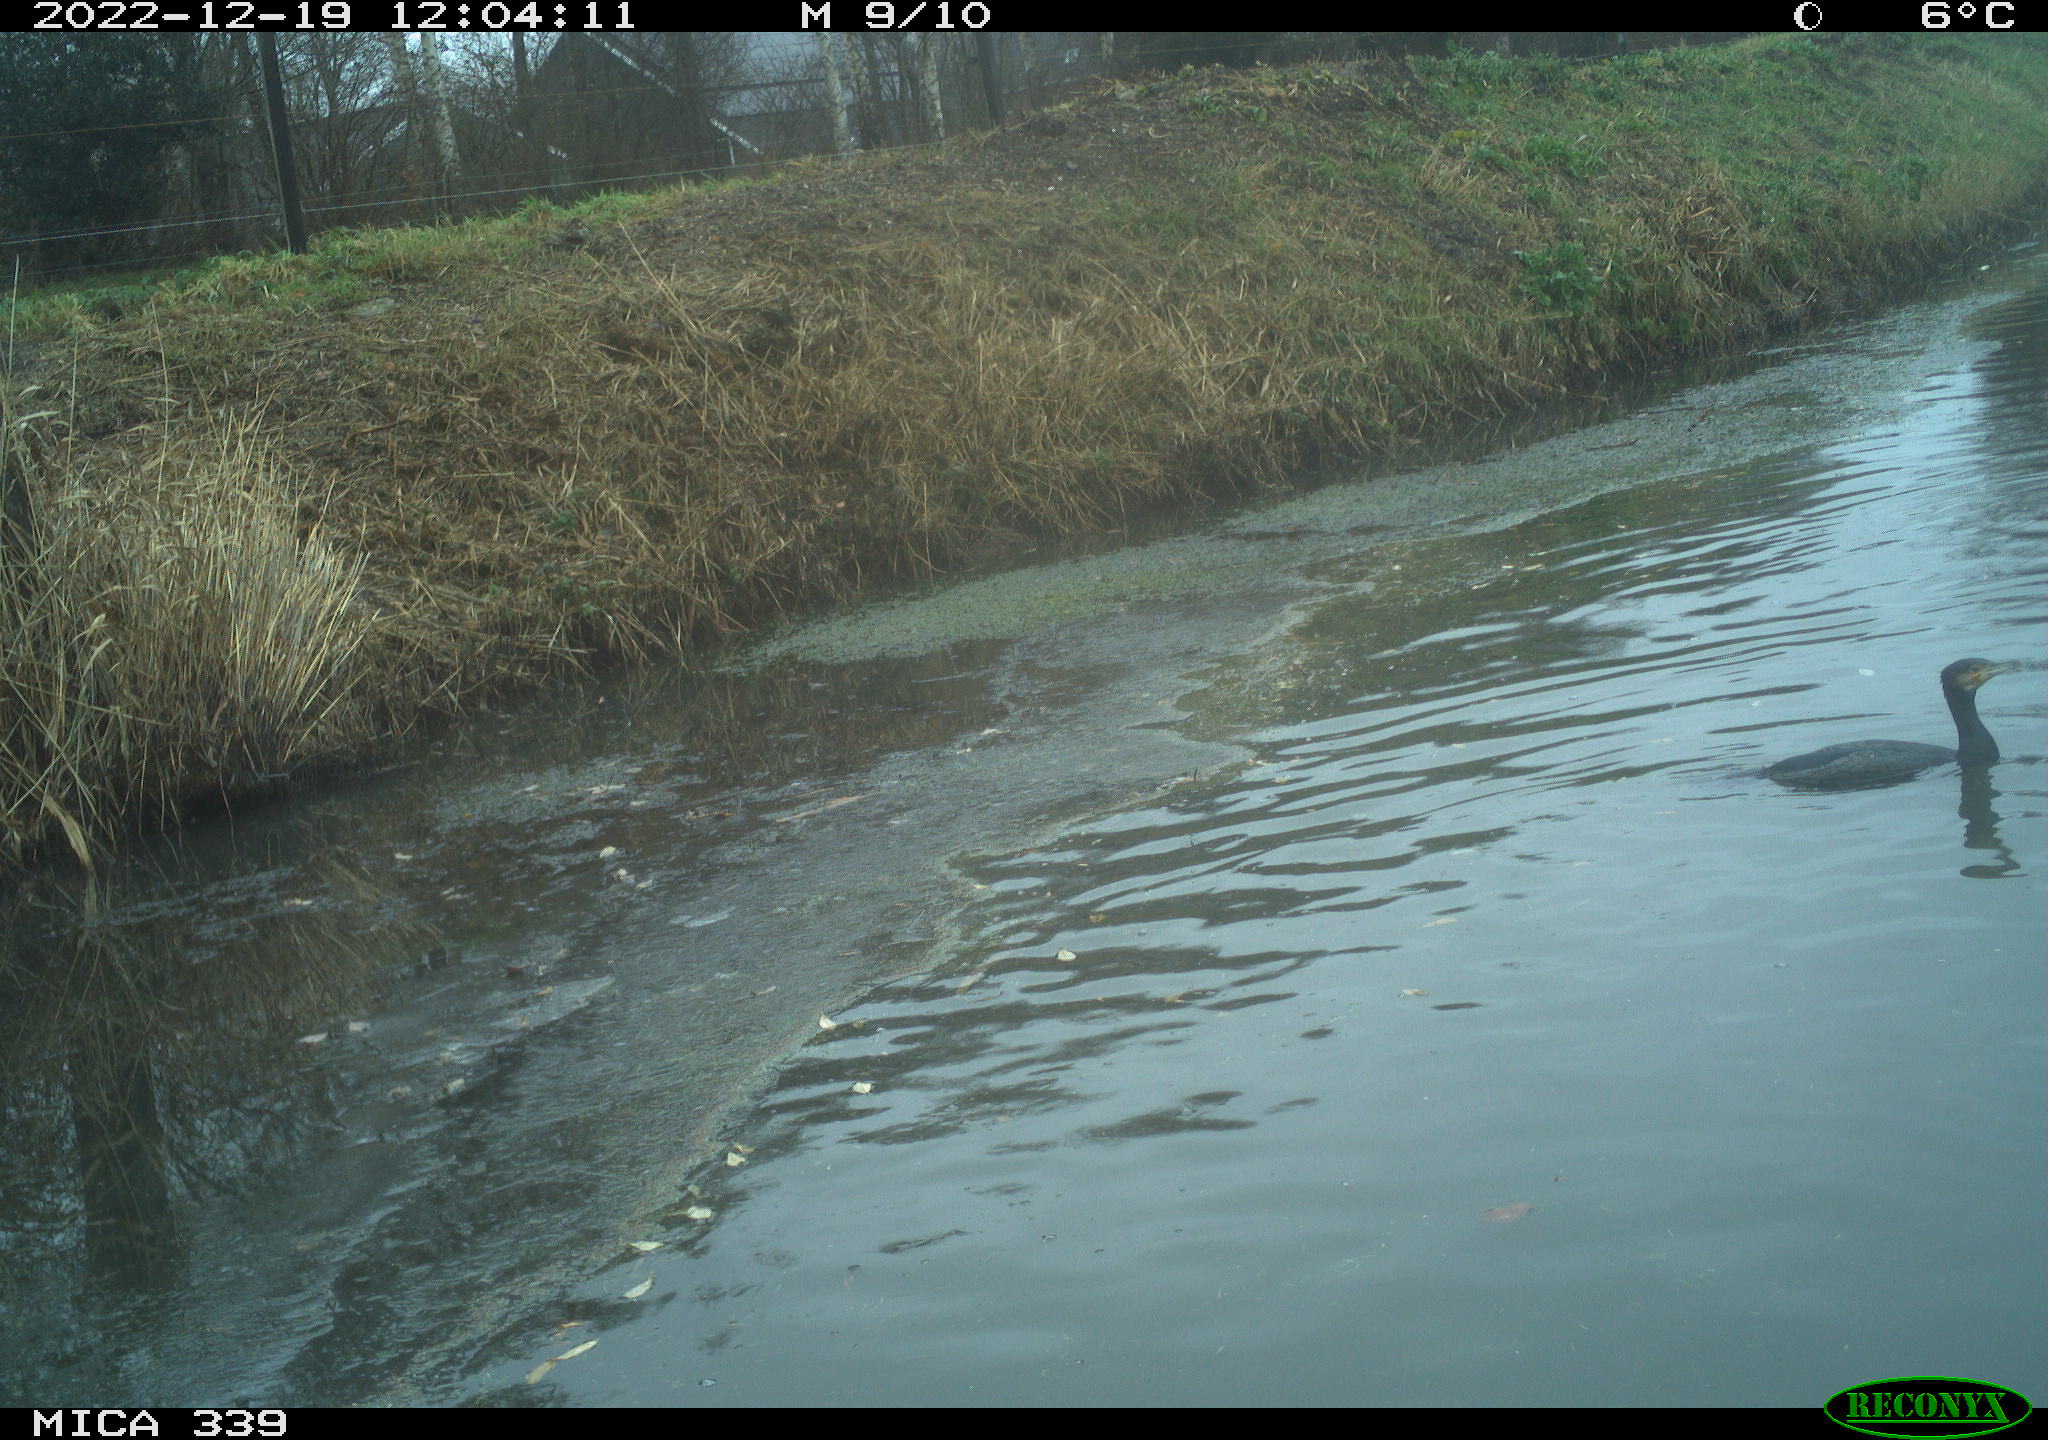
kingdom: Animalia
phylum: Chordata
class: Aves
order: Suliformes
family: Phalacrocoracidae
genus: Phalacrocorax
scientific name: Phalacrocorax carbo
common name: Great cormorant
